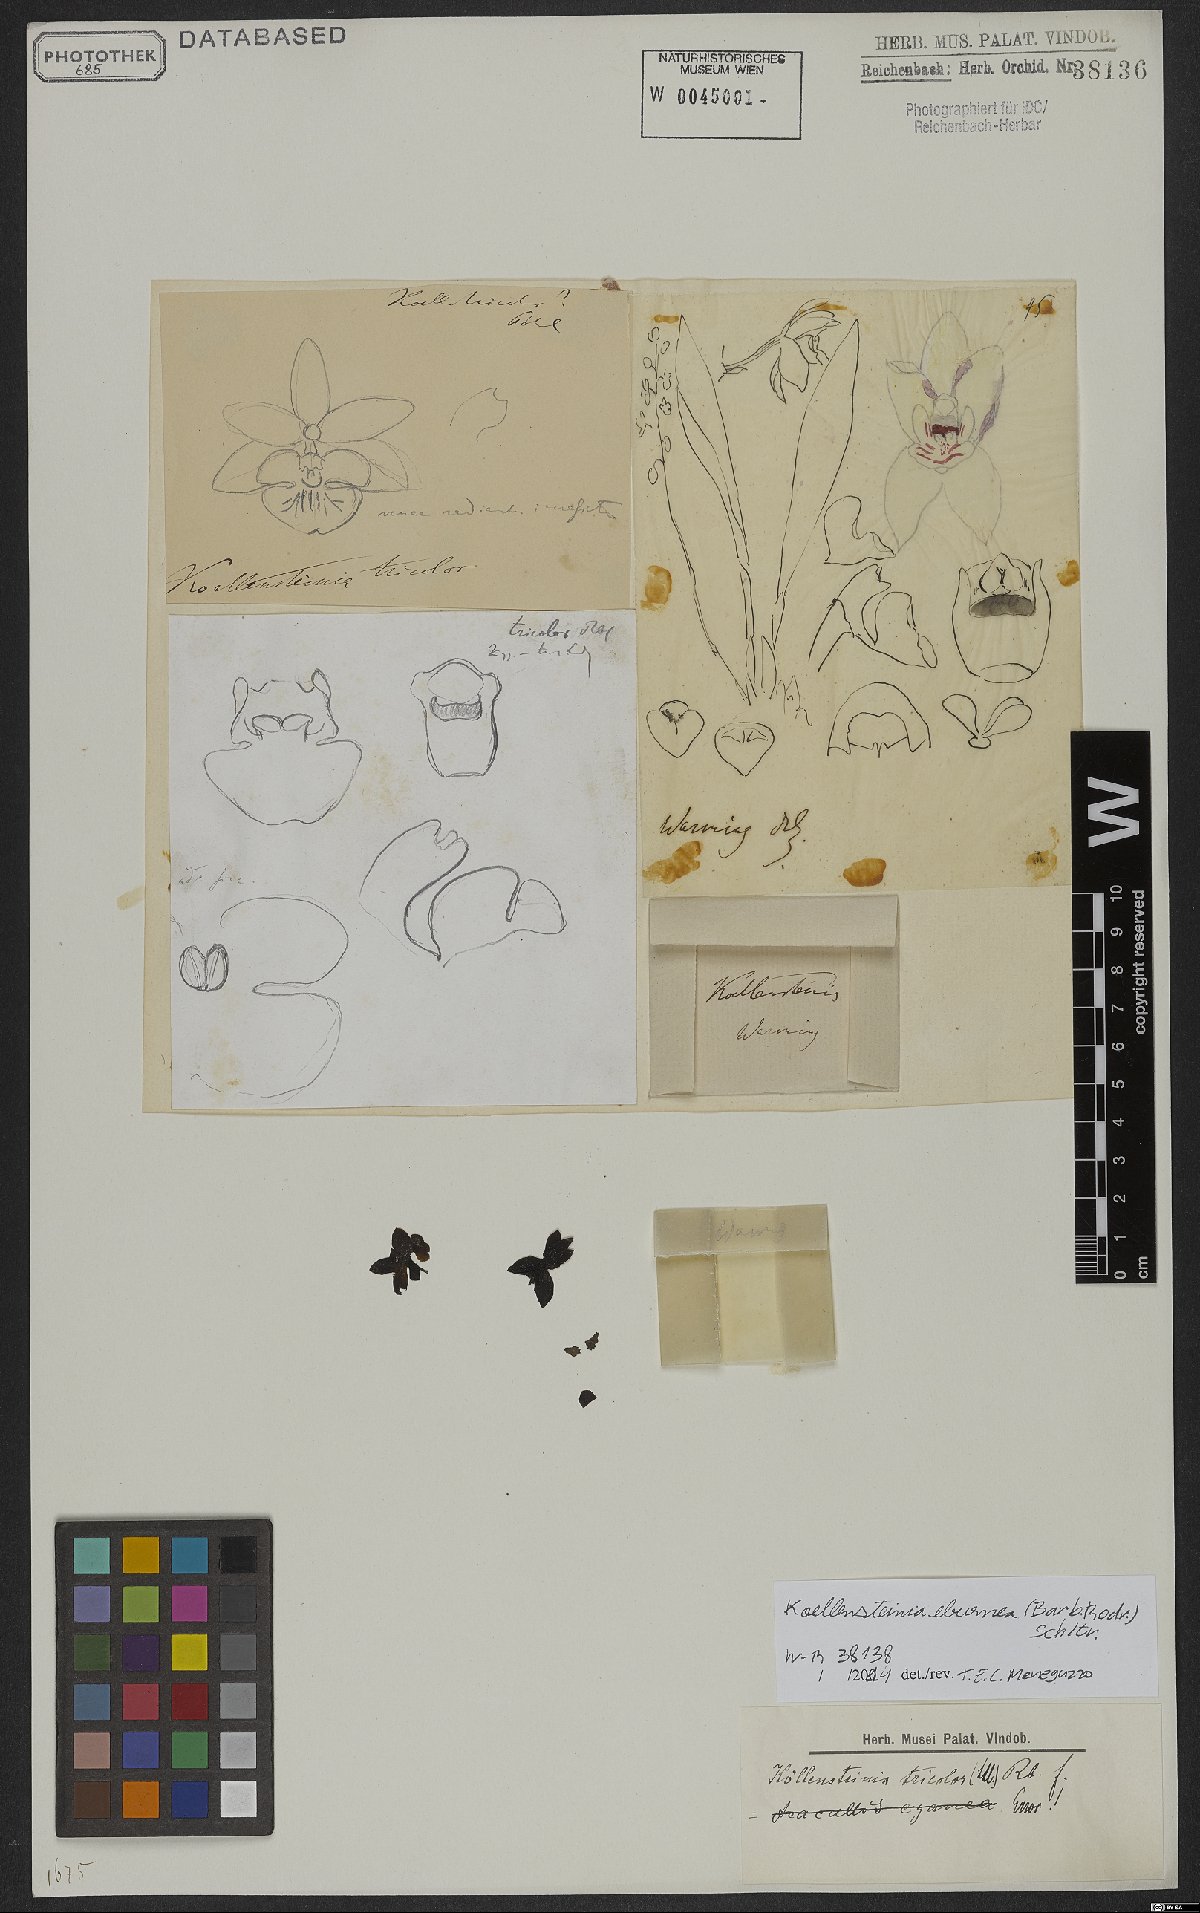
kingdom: Plantae
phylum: Tracheophyta
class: Liliopsida
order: Asparagales
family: Orchidaceae
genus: Koellensteinia
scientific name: Koellensteinia eburnea
